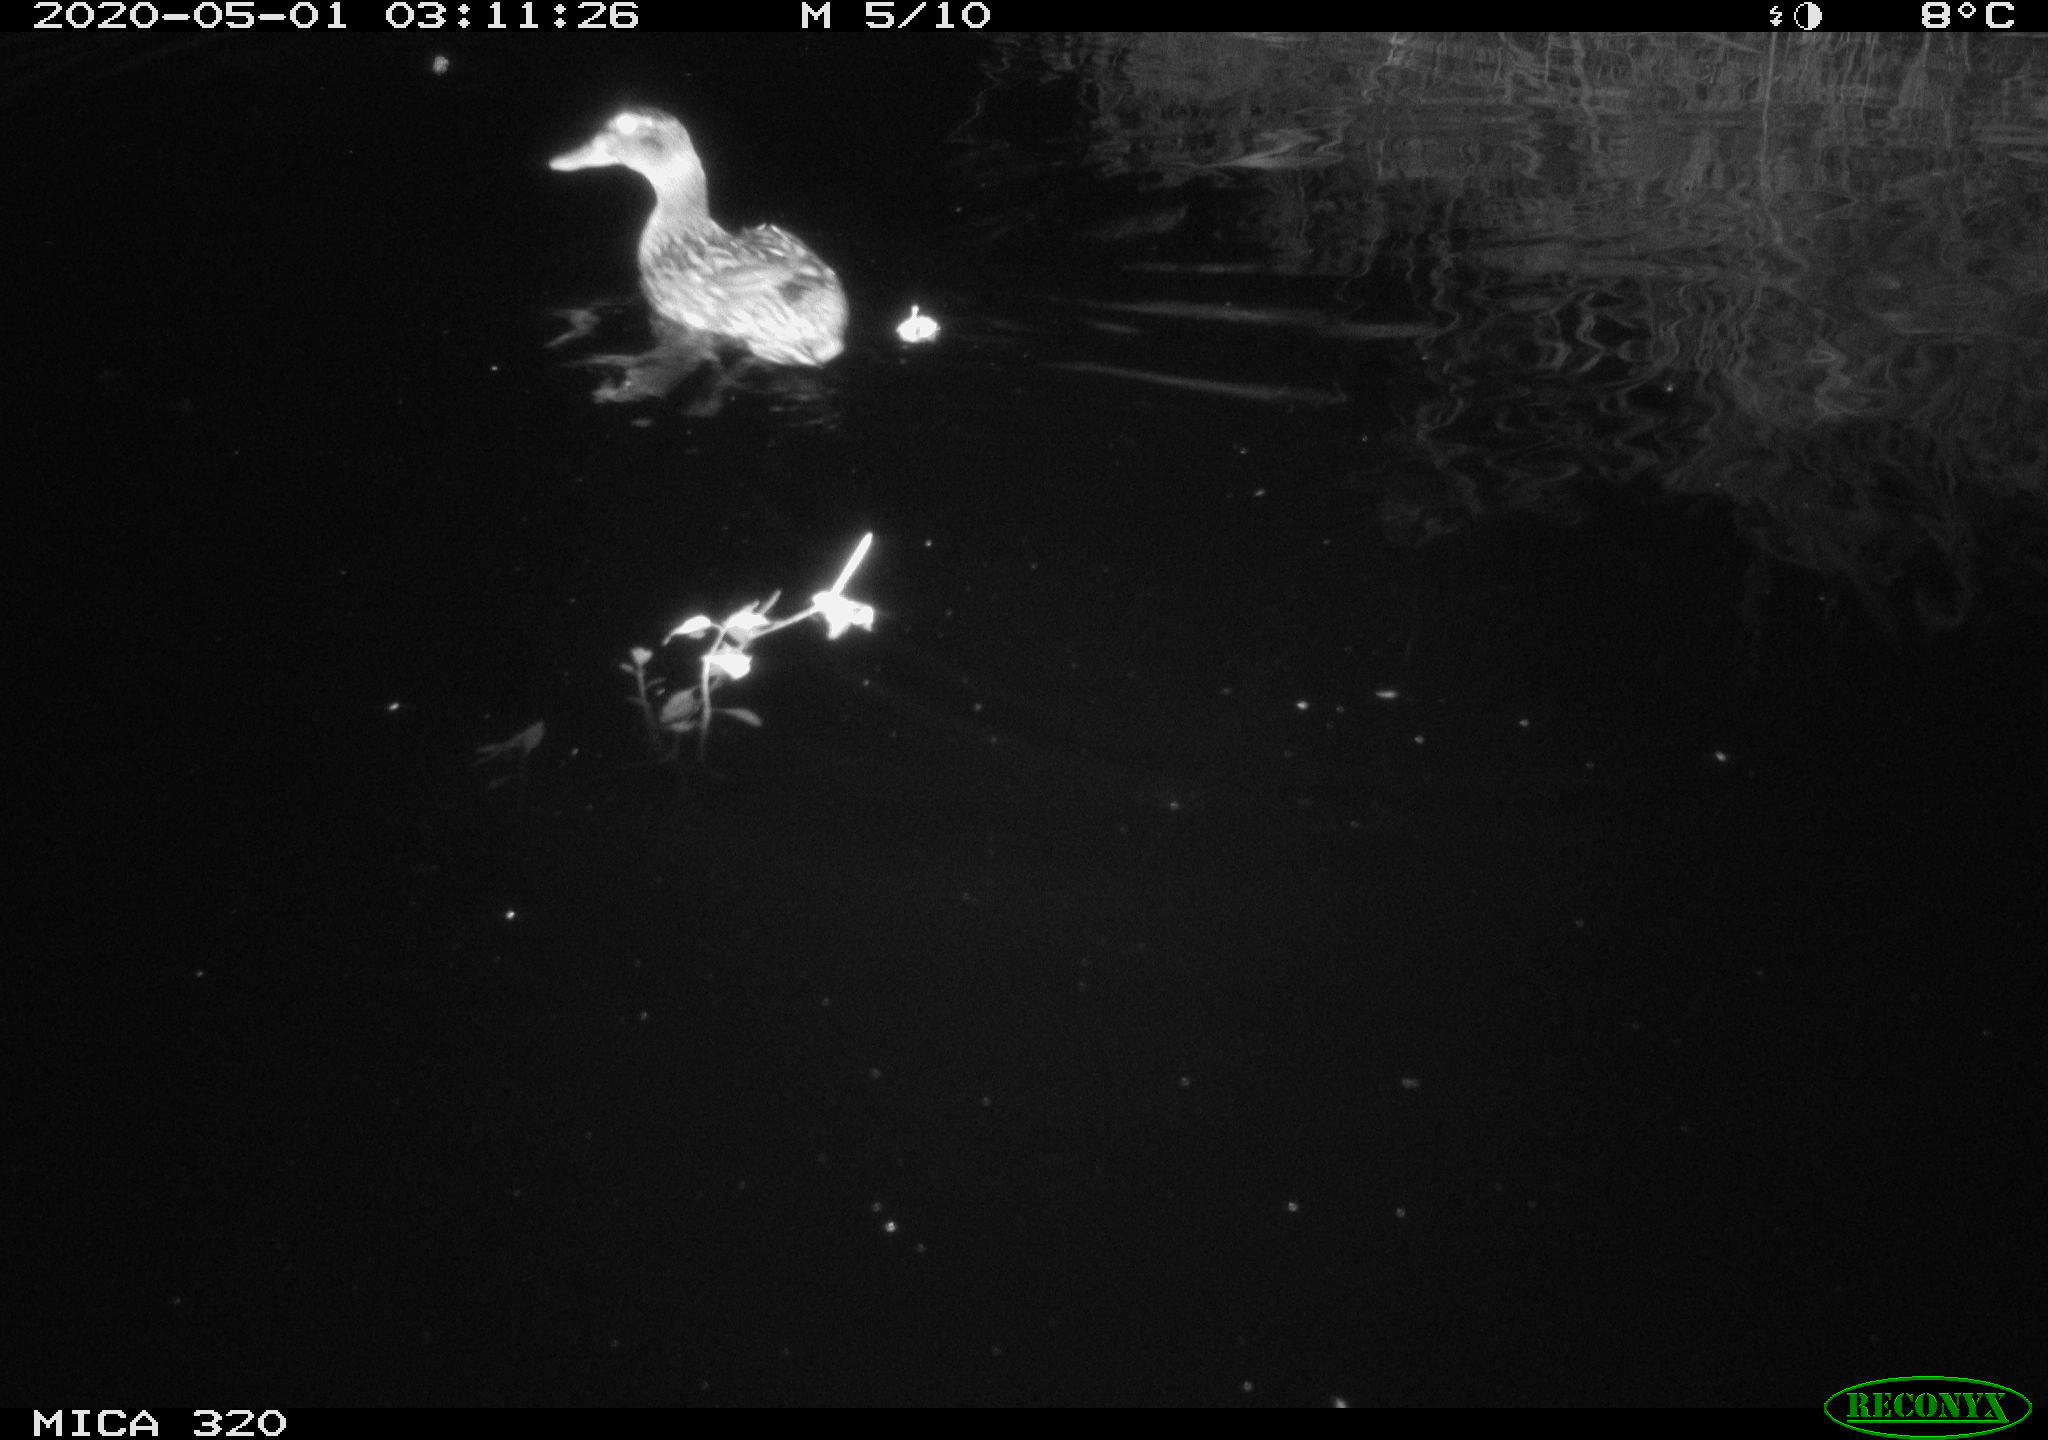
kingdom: Animalia
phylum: Chordata
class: Aves
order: Anseriformes
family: Anatidae
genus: Anas
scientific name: Anas platyrhynchos
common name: Mallard
